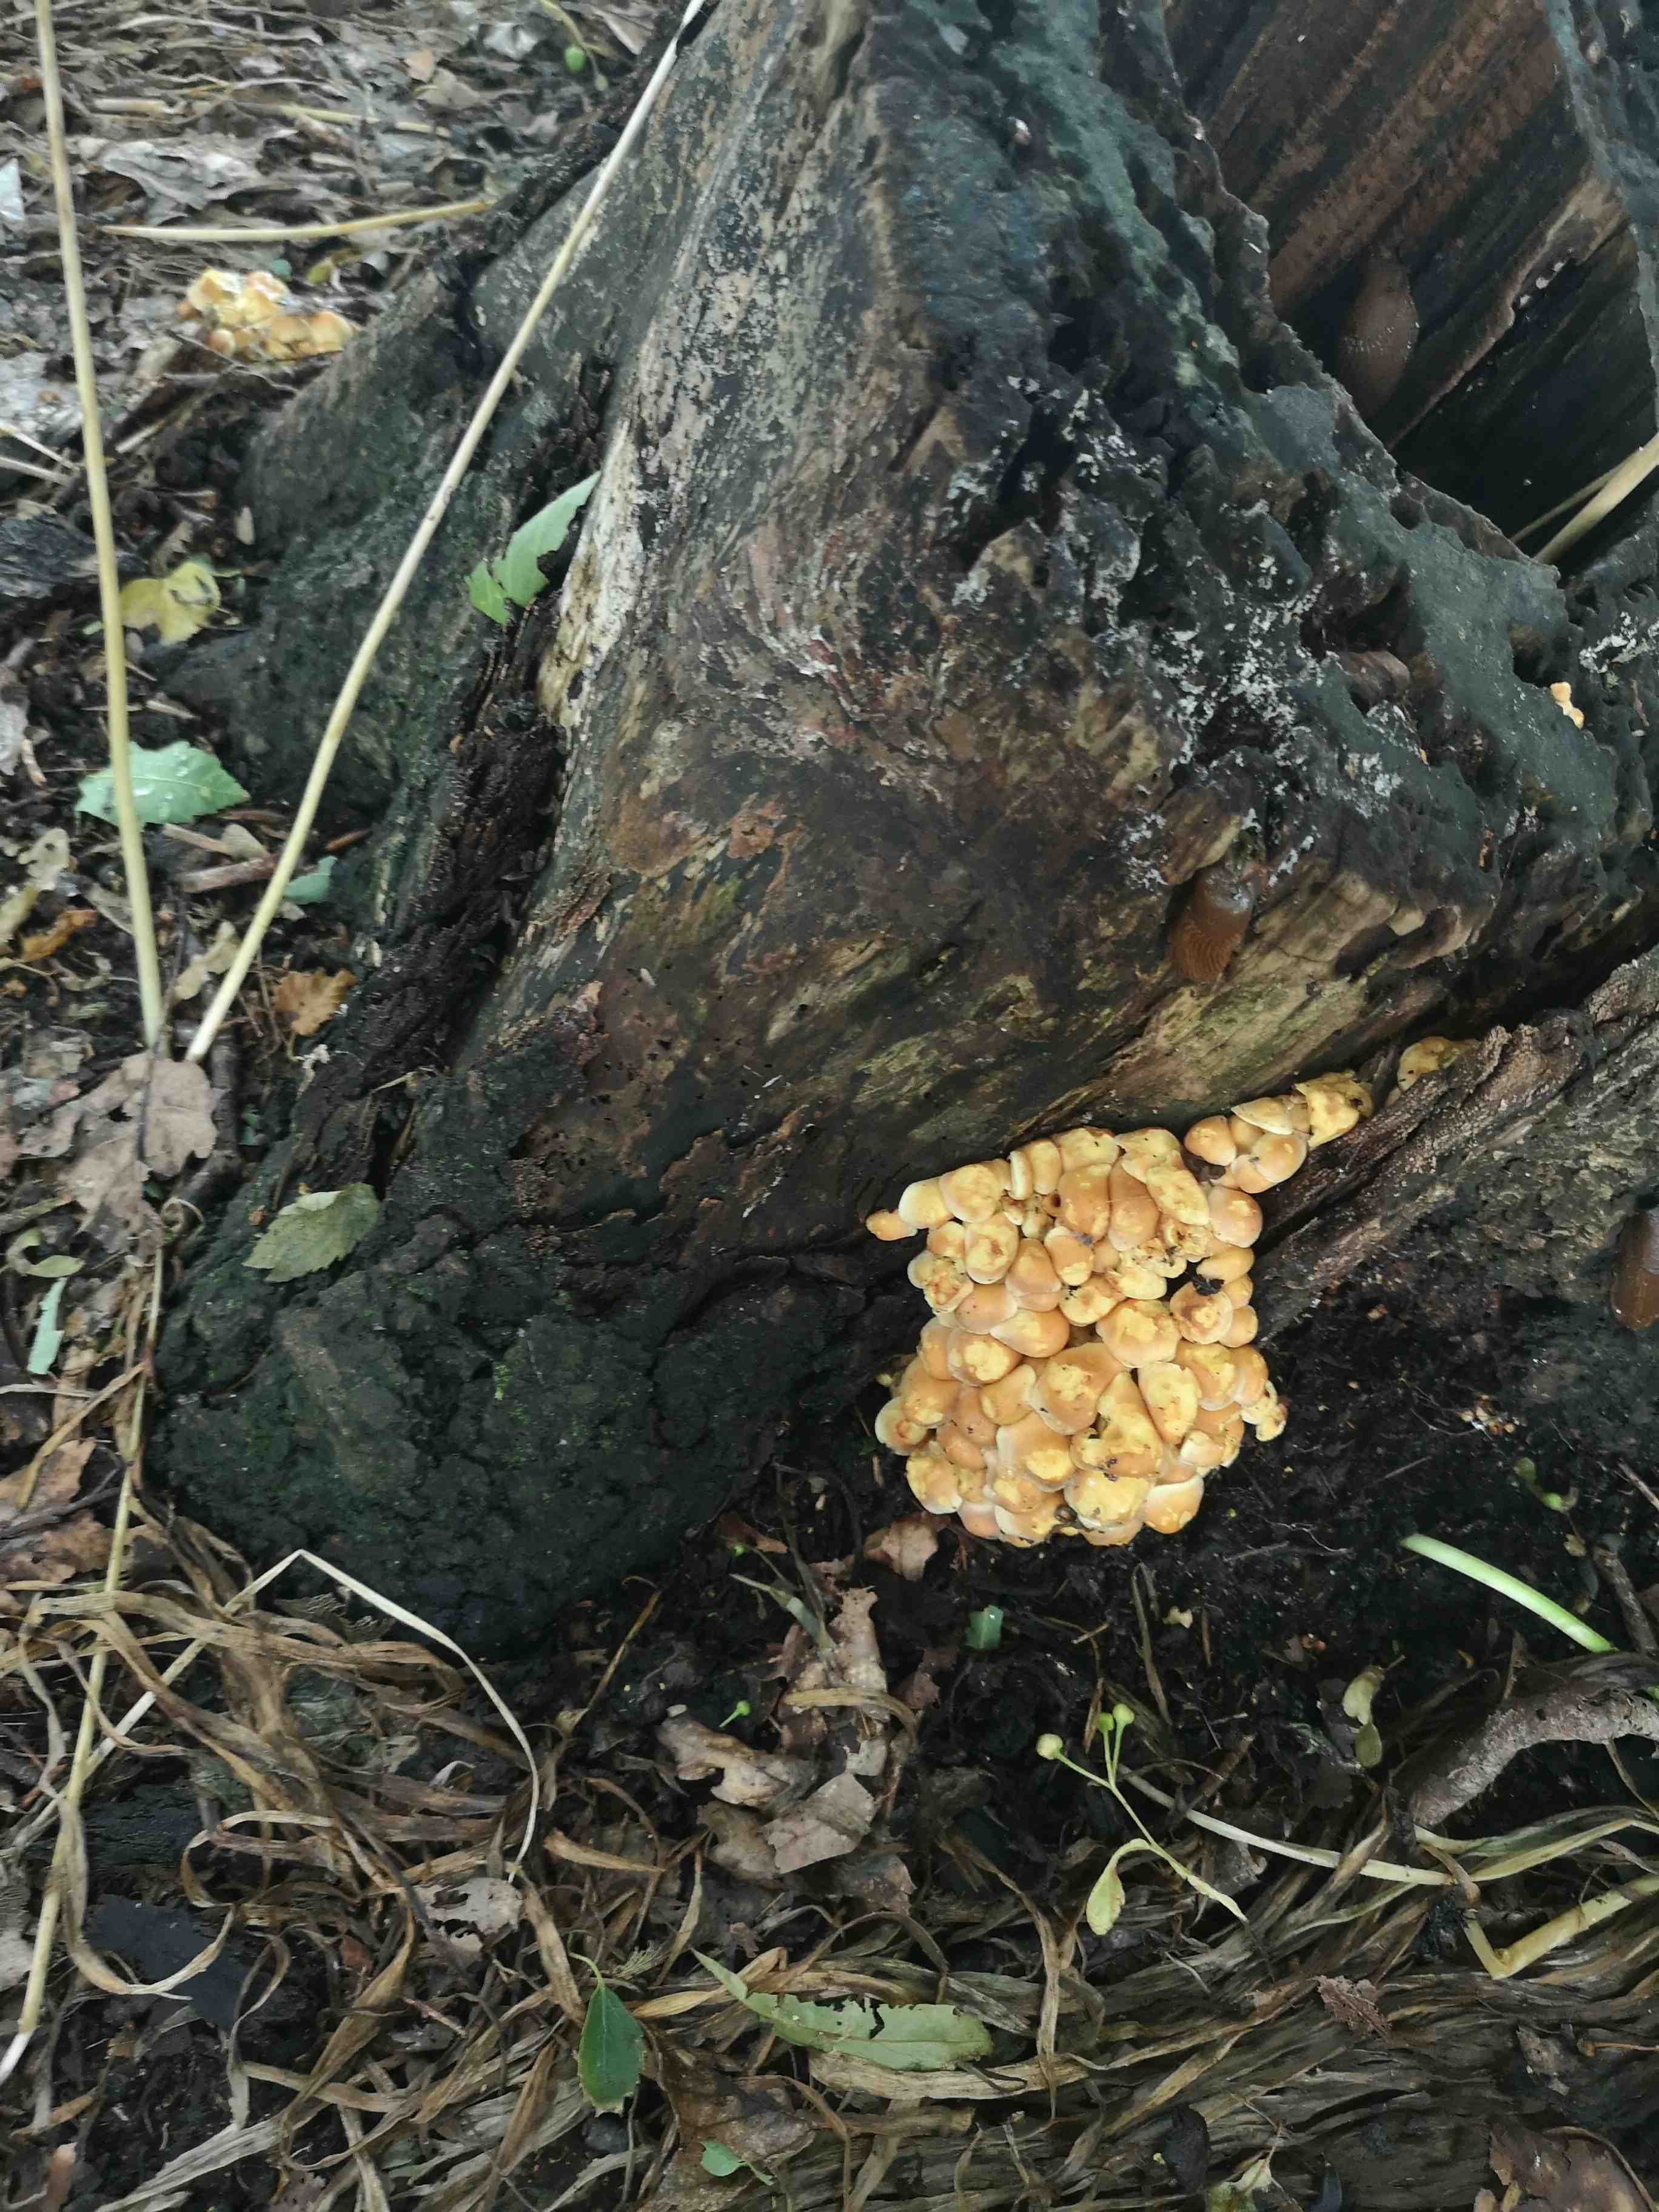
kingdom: Fungi
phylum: Basidiomycota
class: Agaricomycetes
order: Agaricales
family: Strophariaceae
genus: Hypholoma
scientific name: Hypholoma fasciculare
